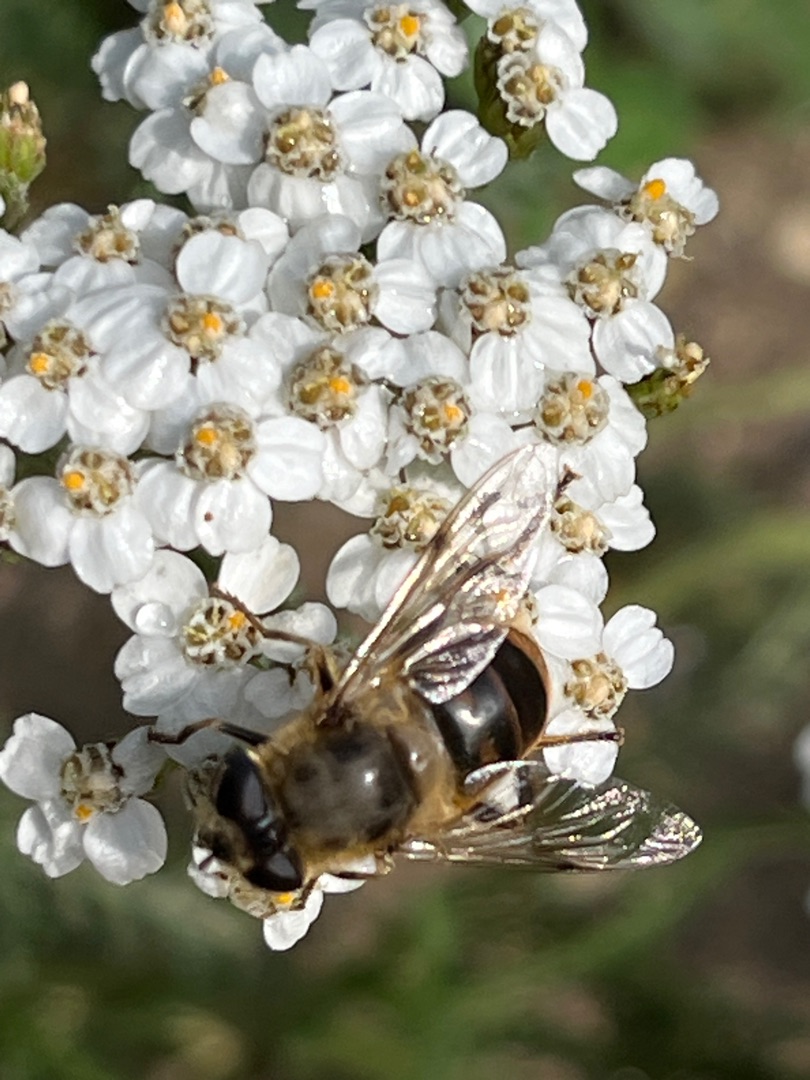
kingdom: Animalia
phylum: Arthropoda
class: Insecta
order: Diptera
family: Syrphidae
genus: Eristalis
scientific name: Eristalis tenax
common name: Droneflue
